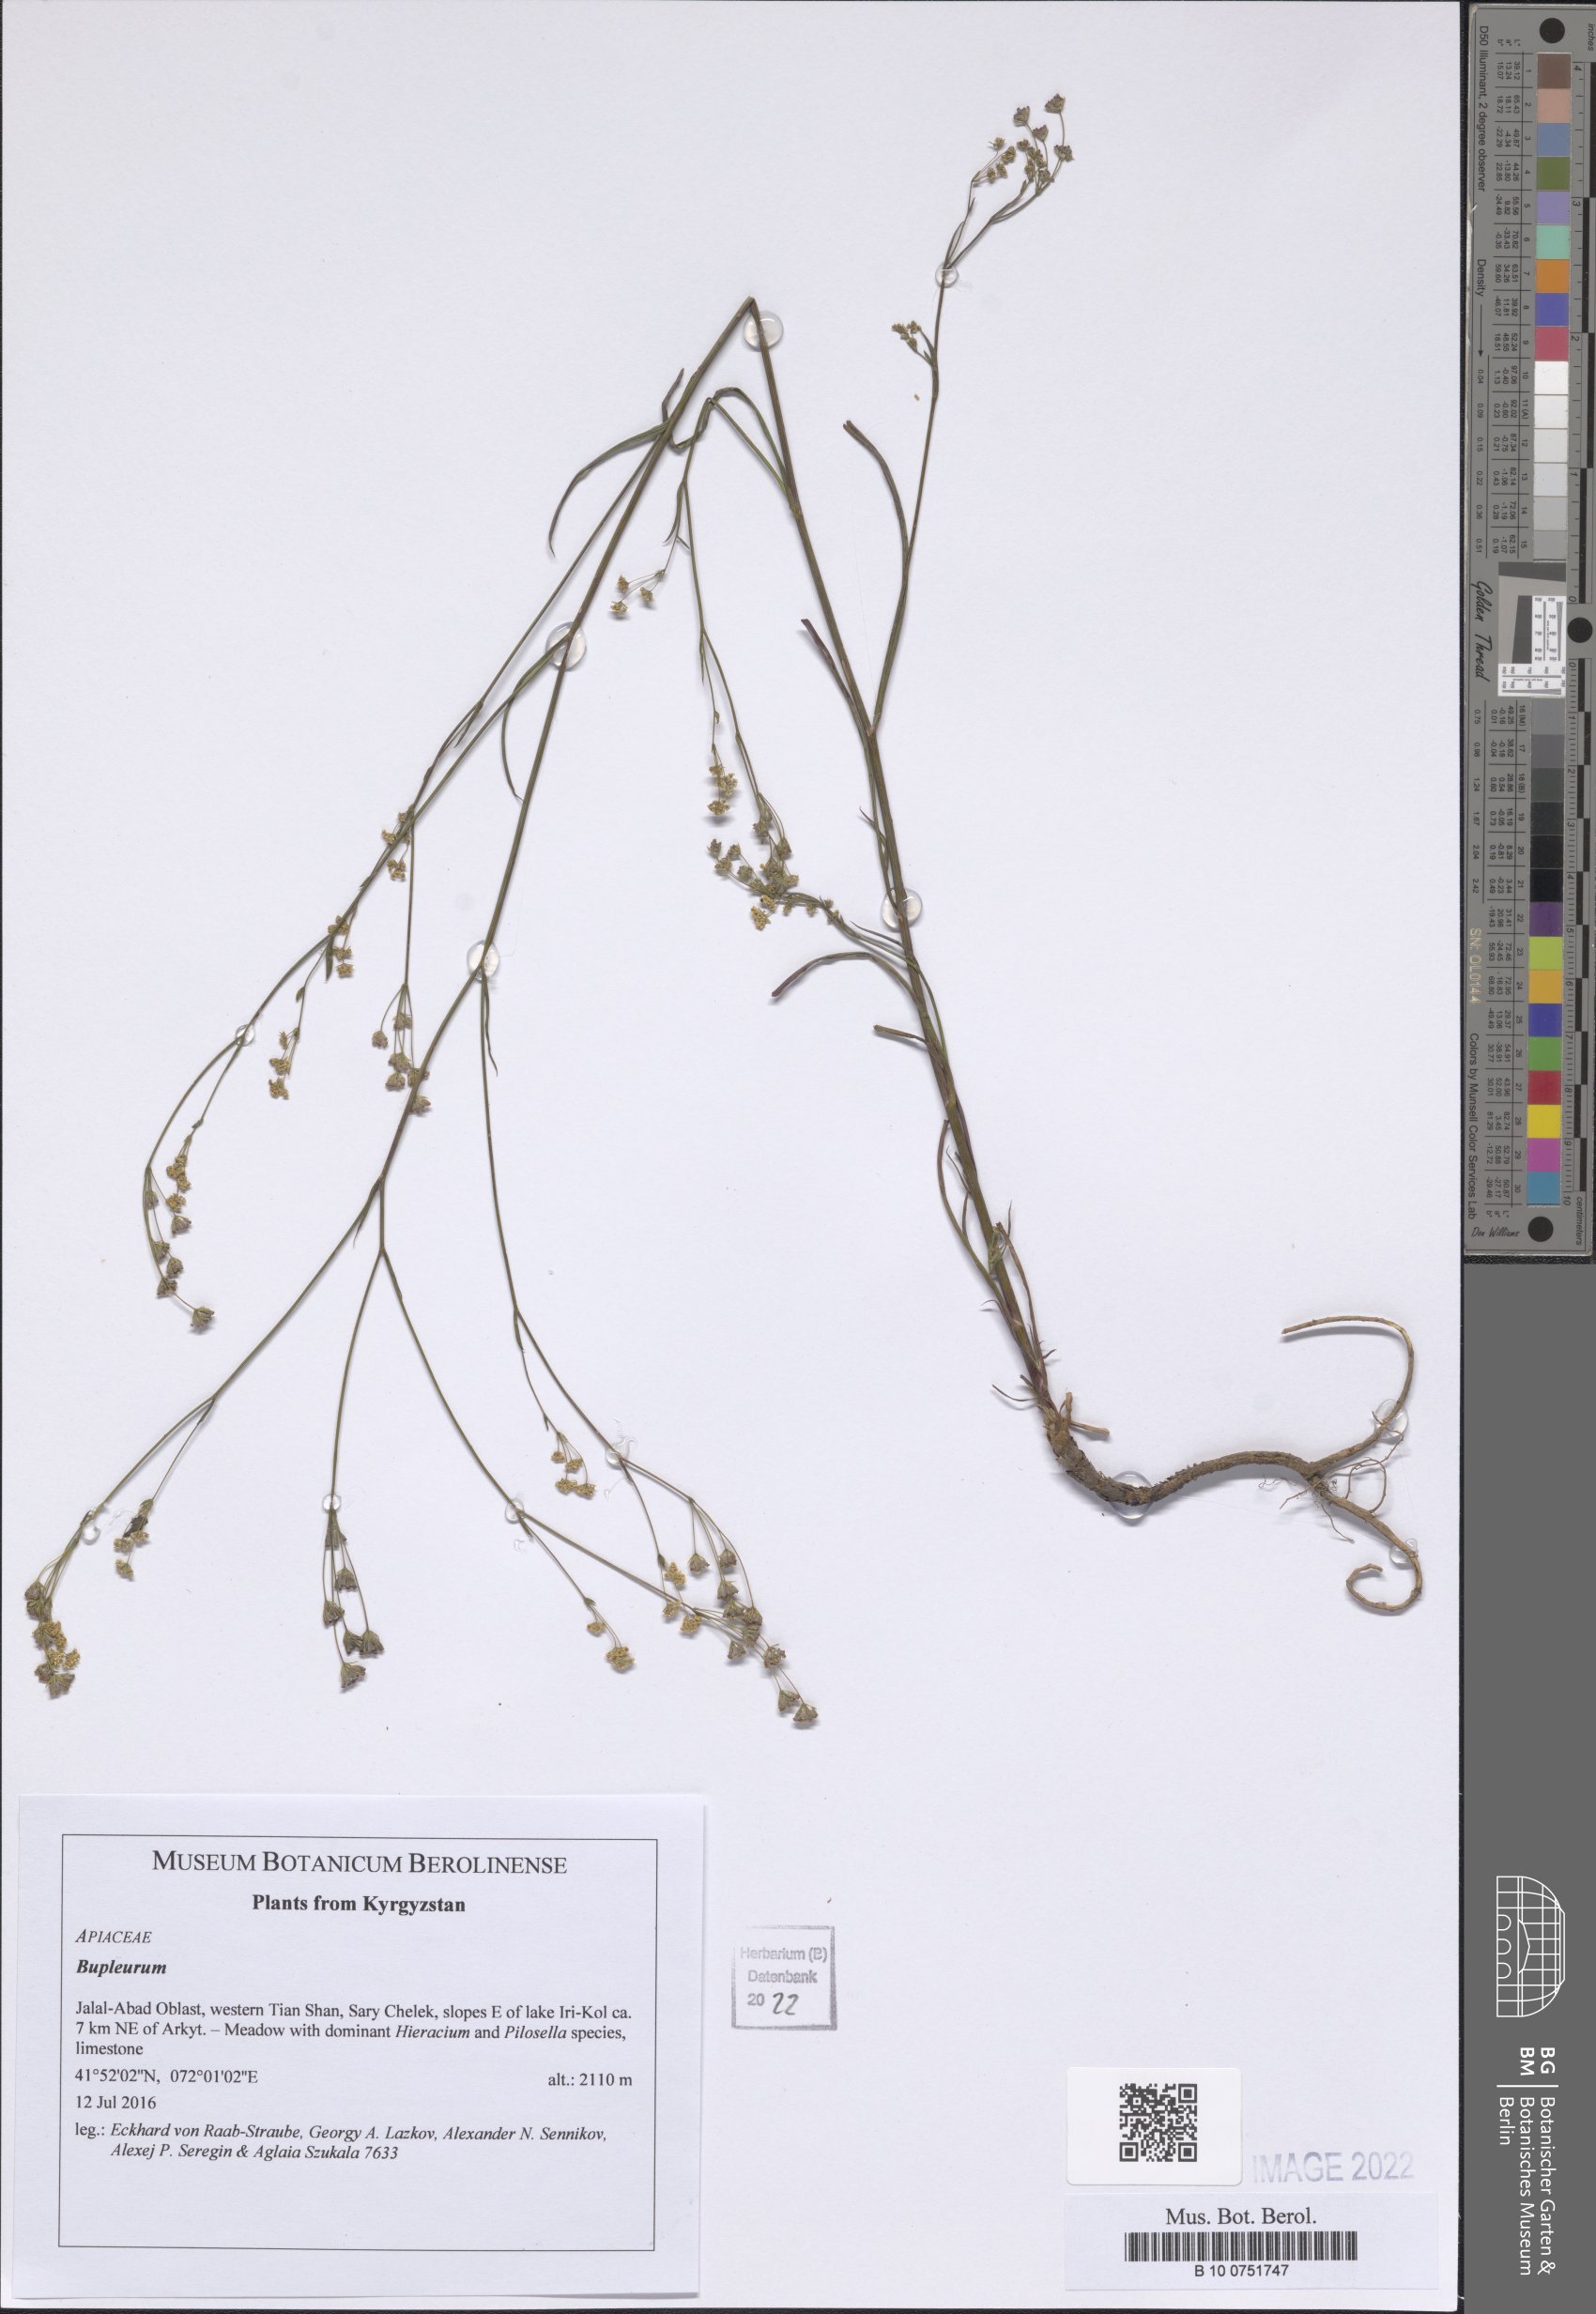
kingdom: Plantae
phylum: Tracheophyta
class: Magnoliopsida
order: Apiales
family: Apiaceae
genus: Bupleurum
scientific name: Bupleurum
